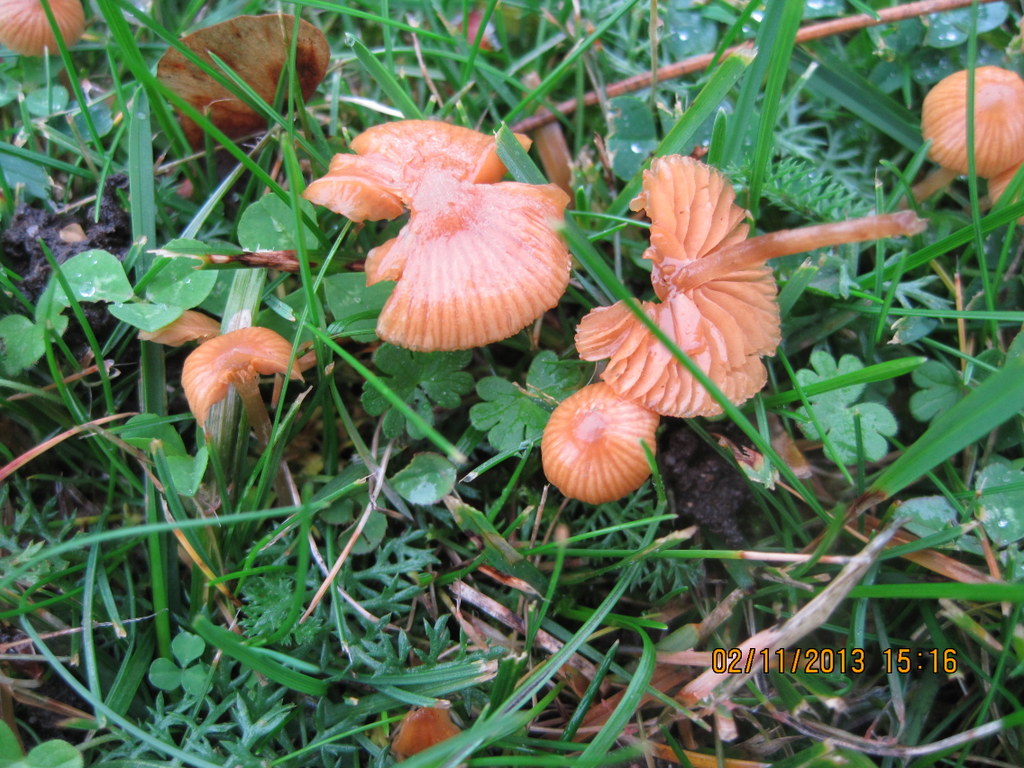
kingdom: Fungi
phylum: Basidiomycota
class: Agaricomycetes
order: Agaricales
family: Hymenogastraceae
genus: Galerina
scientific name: Galerina graminea
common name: plæne-hjelmhat
